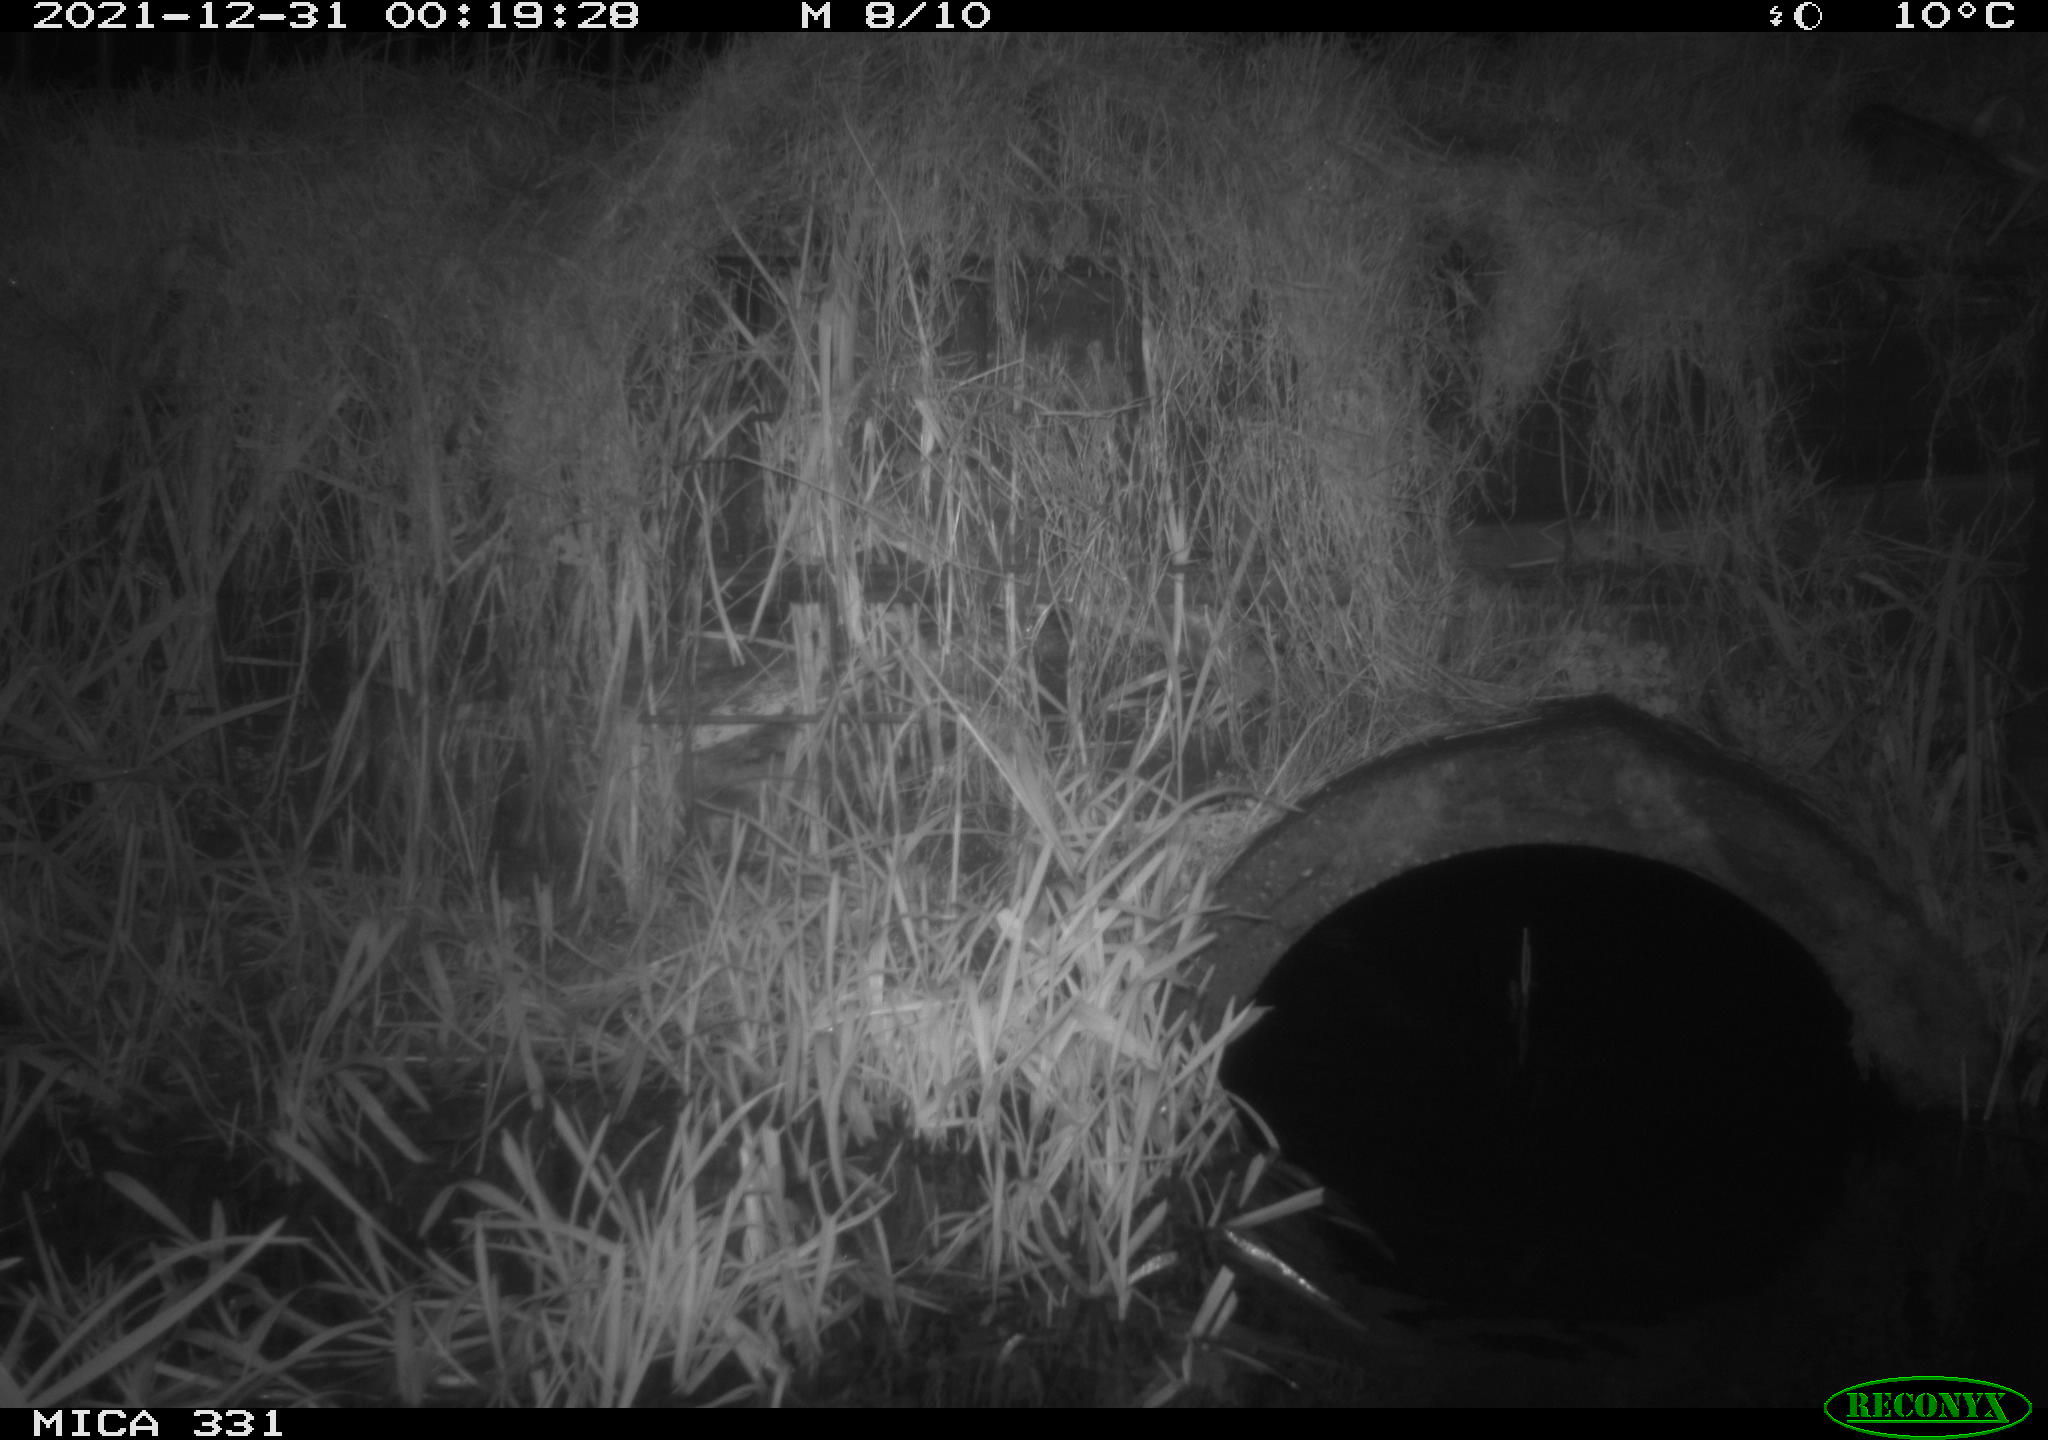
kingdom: Animalia
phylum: Chordata
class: Mammalia
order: Carnivora
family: Mustelidae
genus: Martes
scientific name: Martes foina
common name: Beech marten
